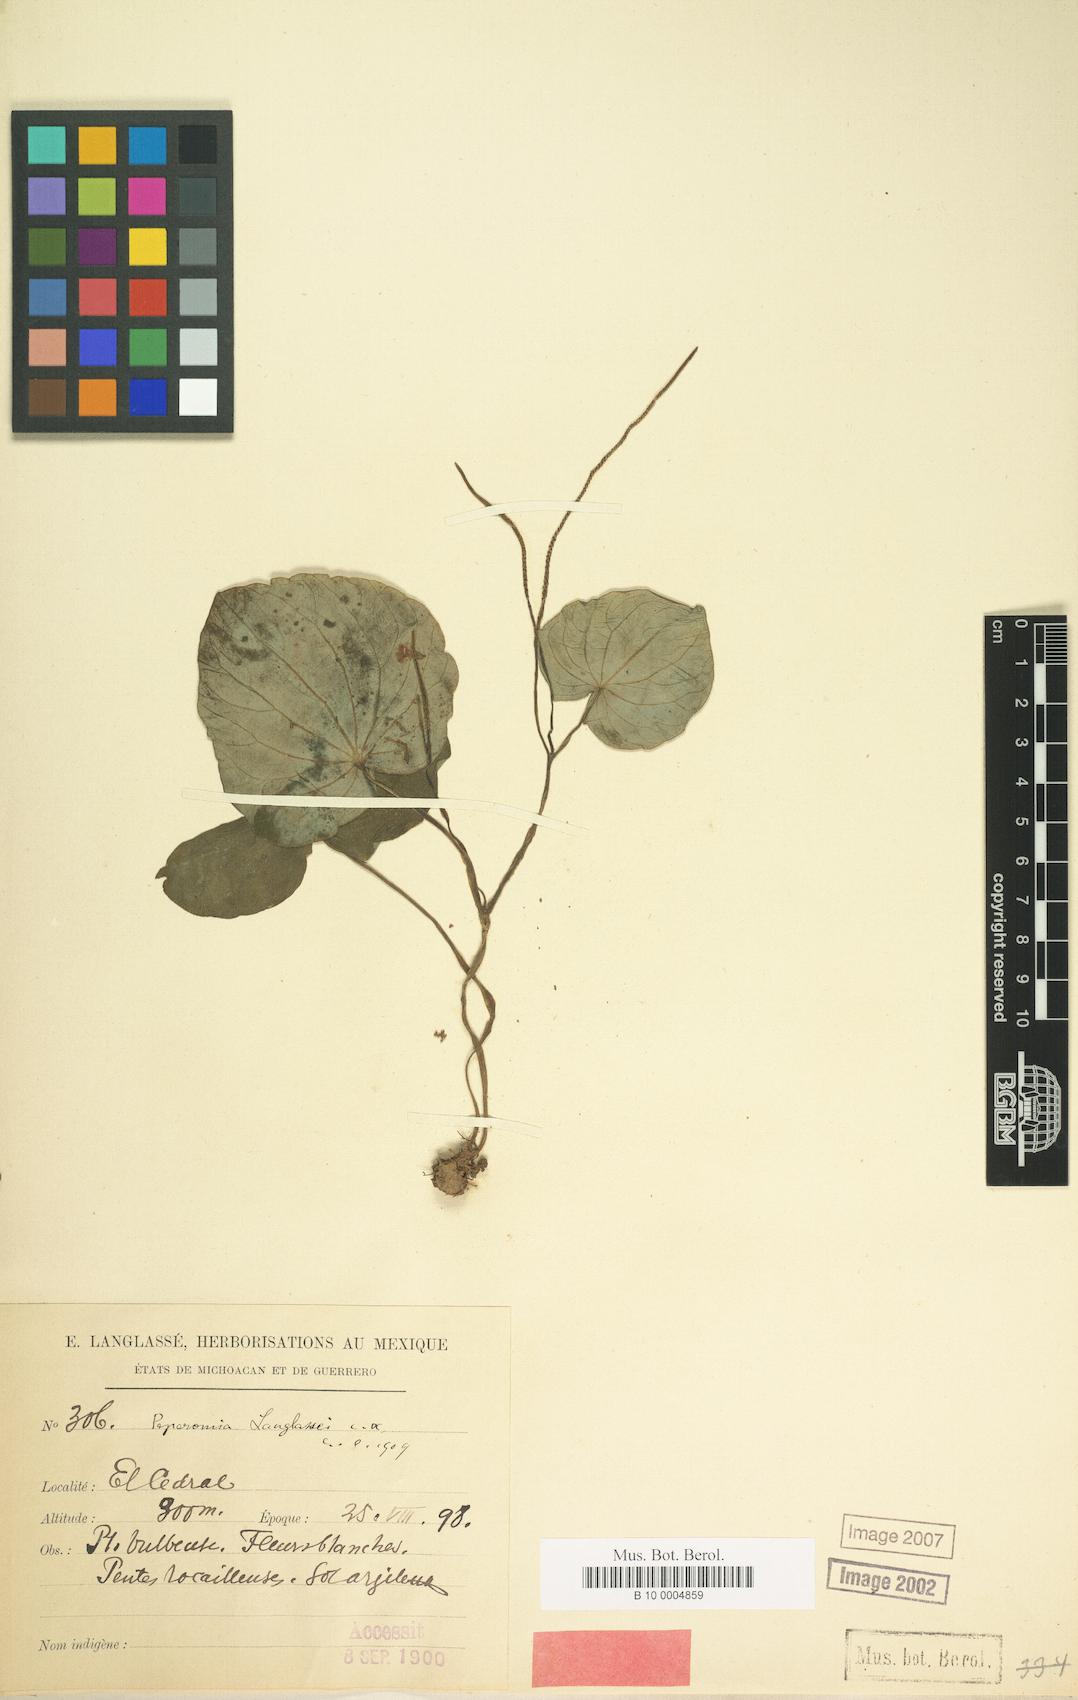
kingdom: Plantae
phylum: Tracheophyta
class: Magnoliopsida
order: Piperales
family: Piperaceae
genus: Peperomia
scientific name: Peperomia asarifolia
